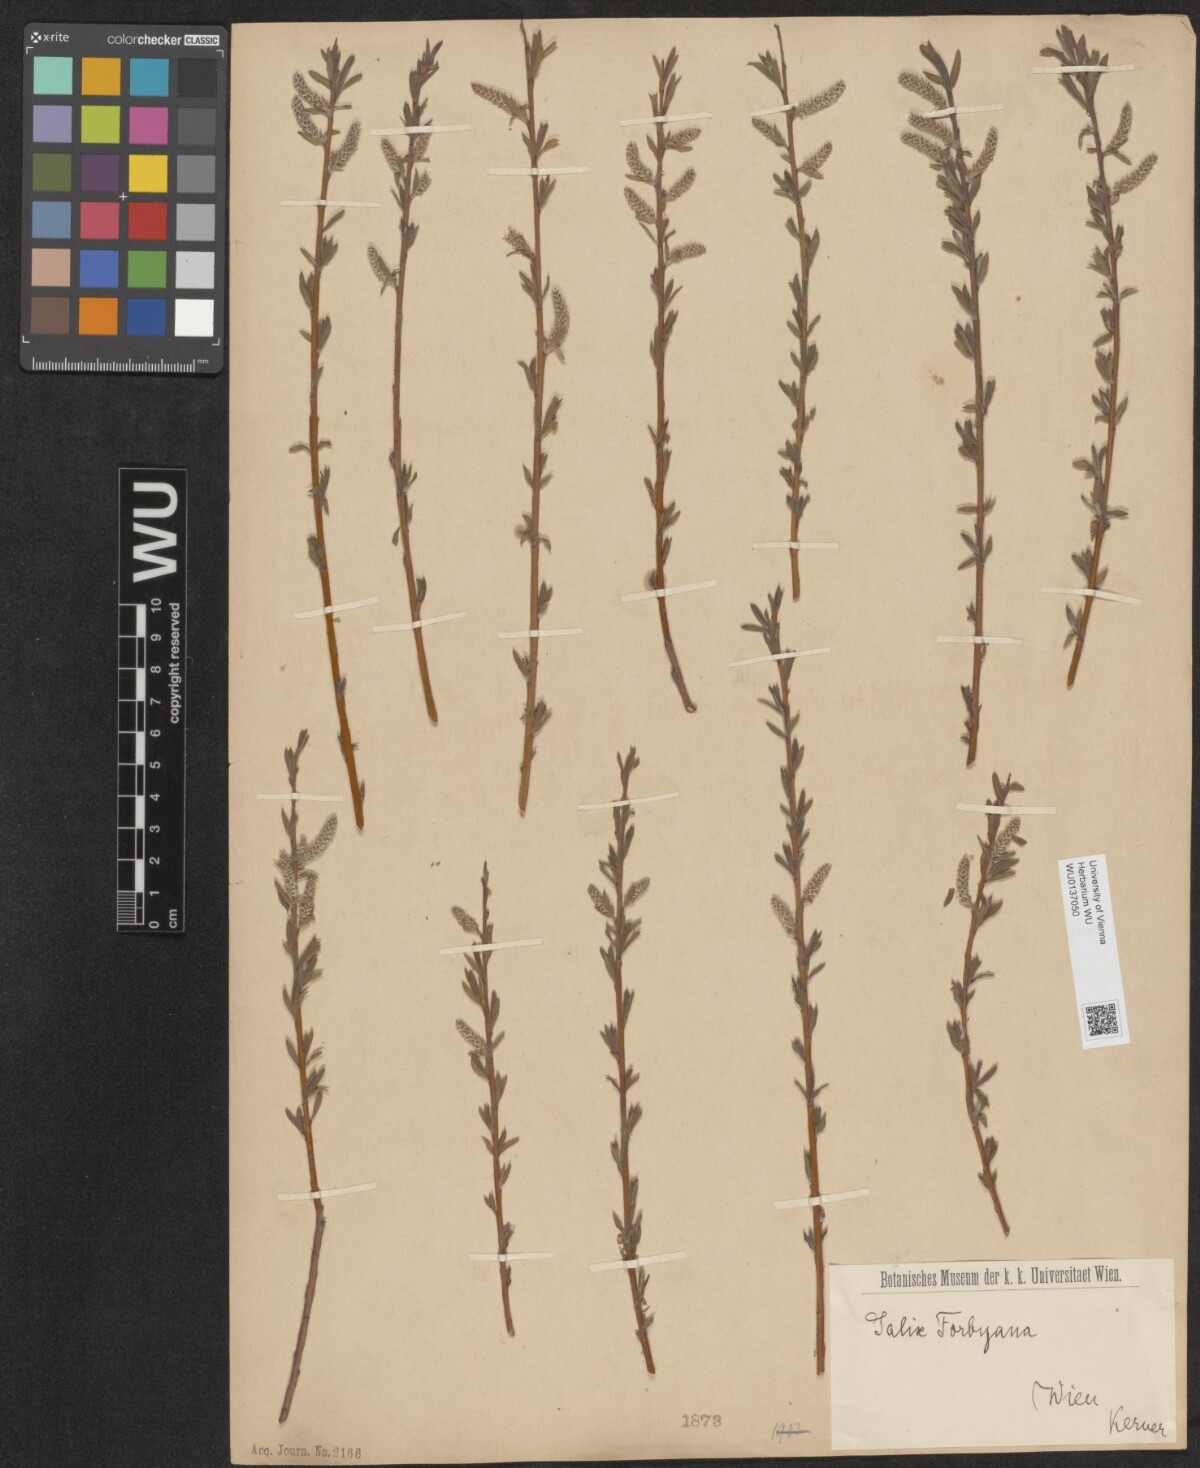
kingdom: Plantae
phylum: Tracheophyta
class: Magnoliopsida
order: Malpighiales
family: Salicaceae
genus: Salix
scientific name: Salix rubra
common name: Green-leaf willow
